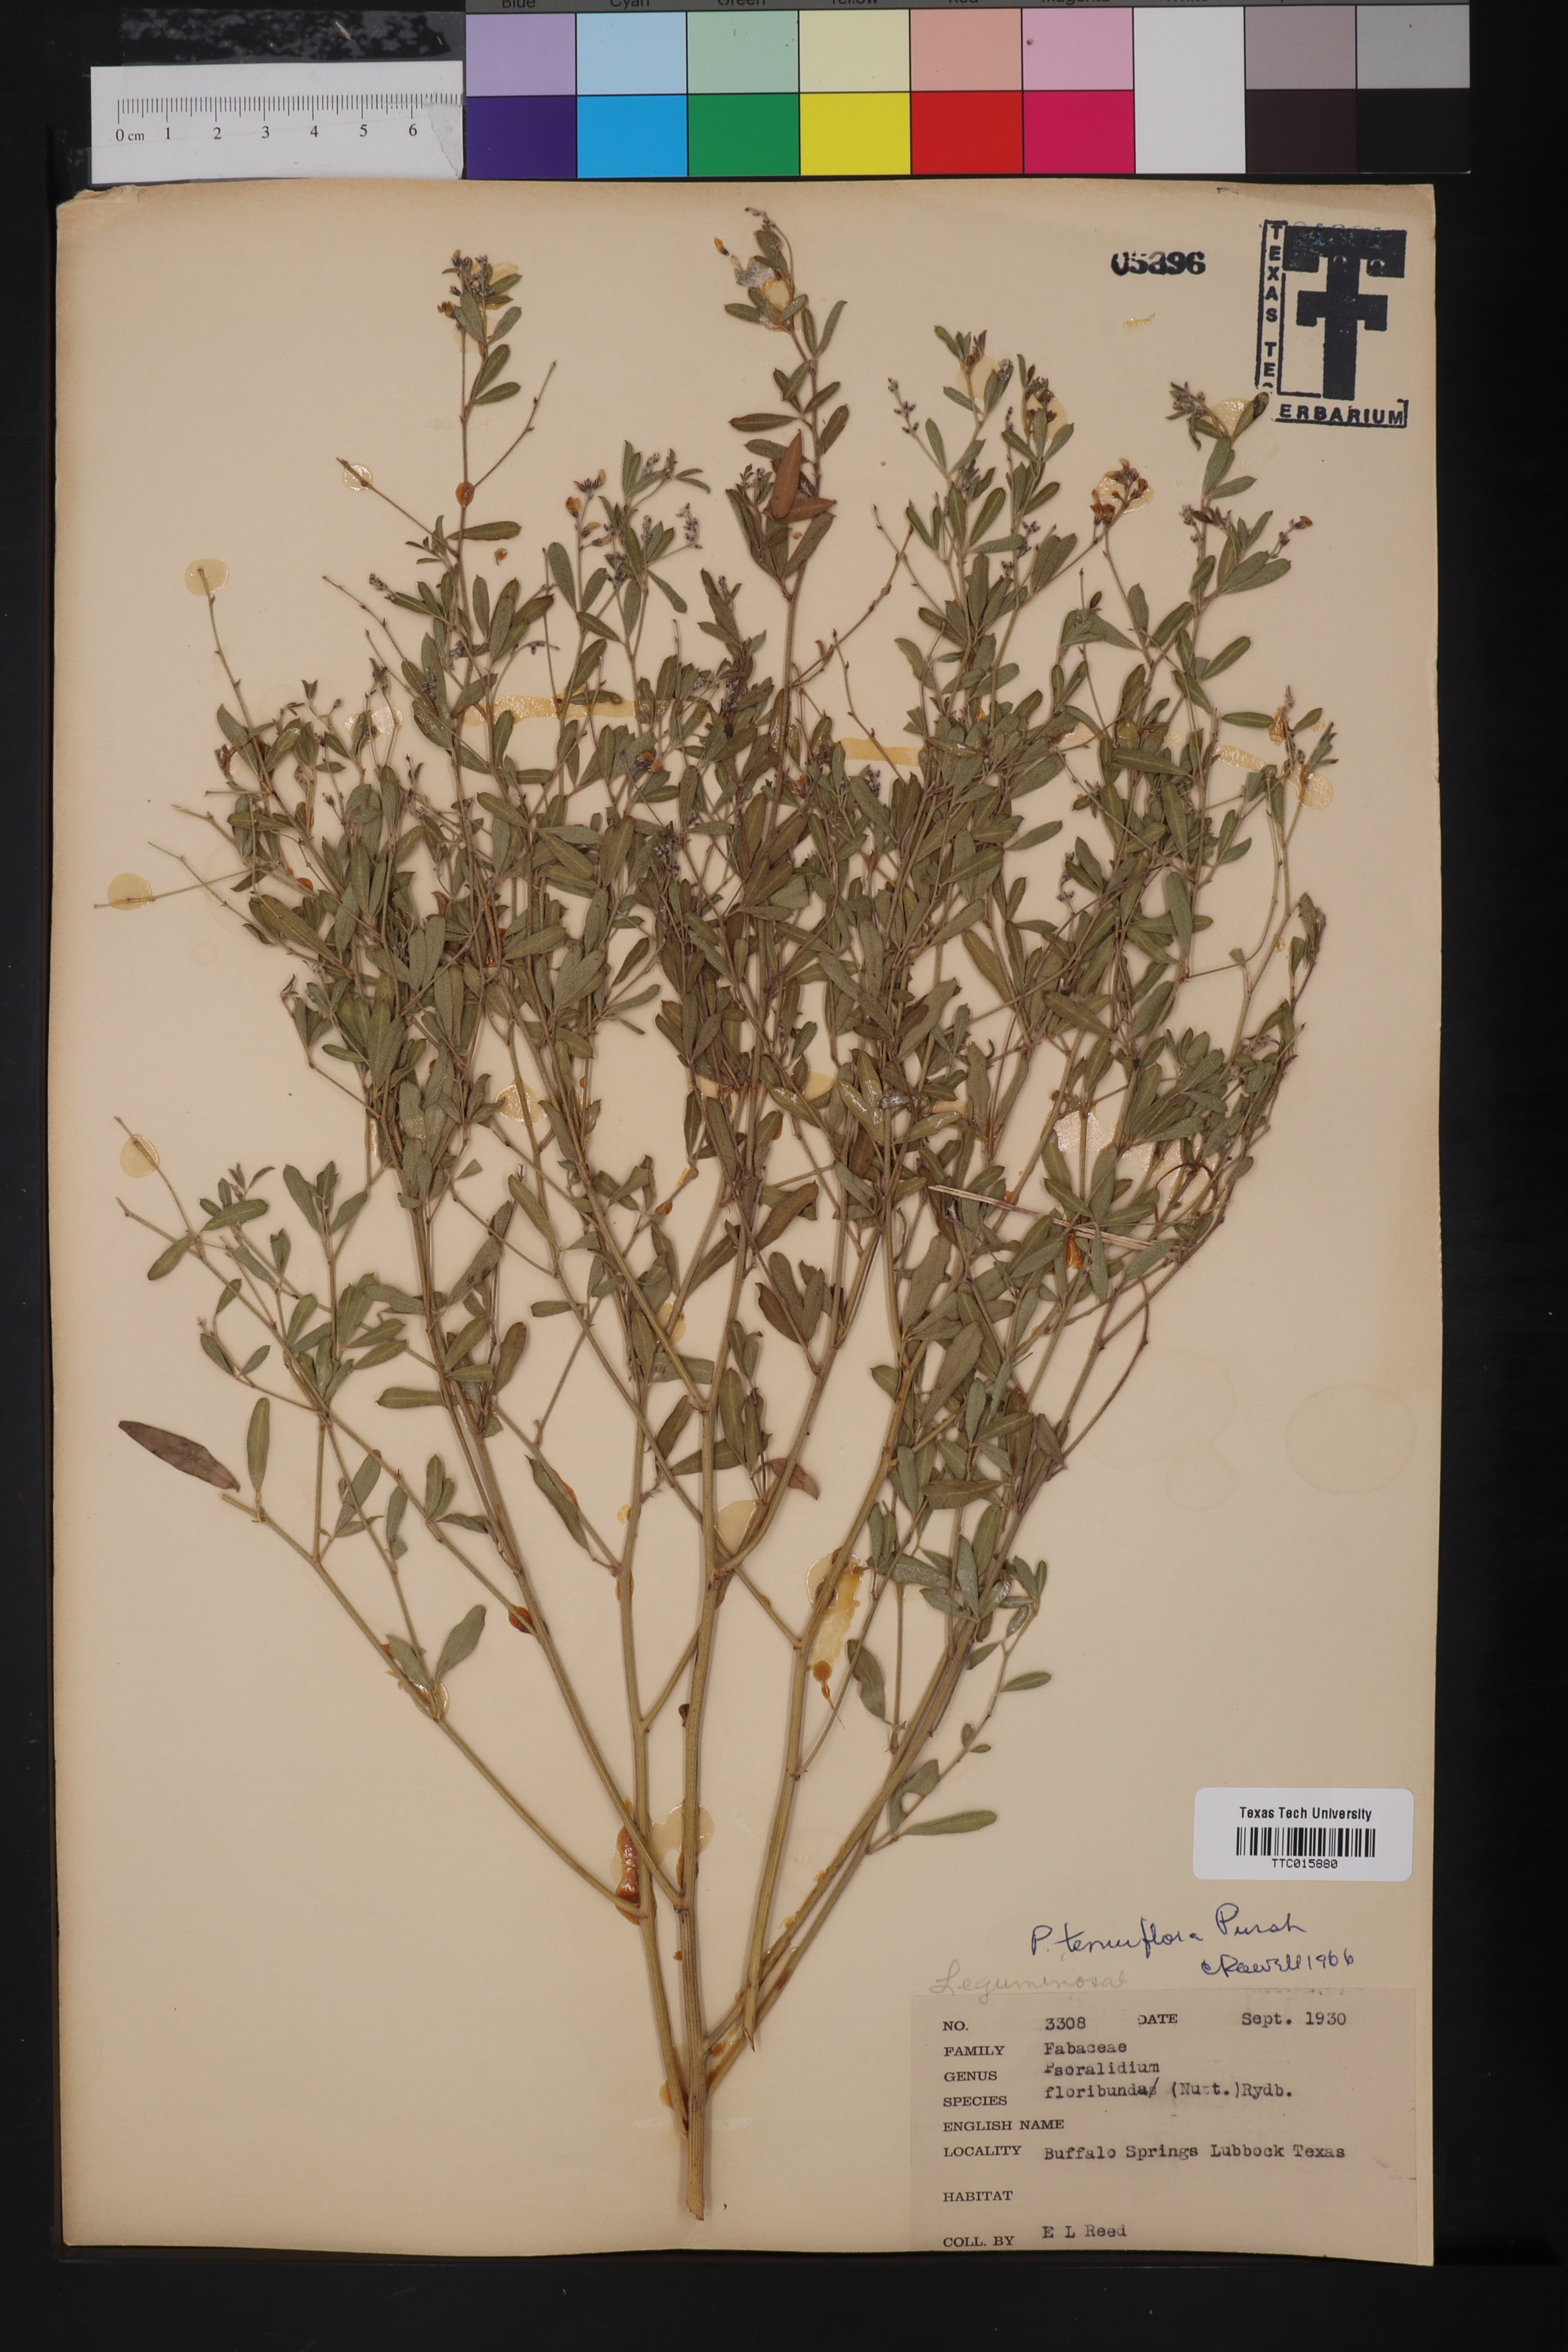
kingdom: Plantae
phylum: Tracheophyta
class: Magnoliopsida
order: Fabales
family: Fabaceae
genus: Pediomelum
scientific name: Pediomelum tenuiflorum
